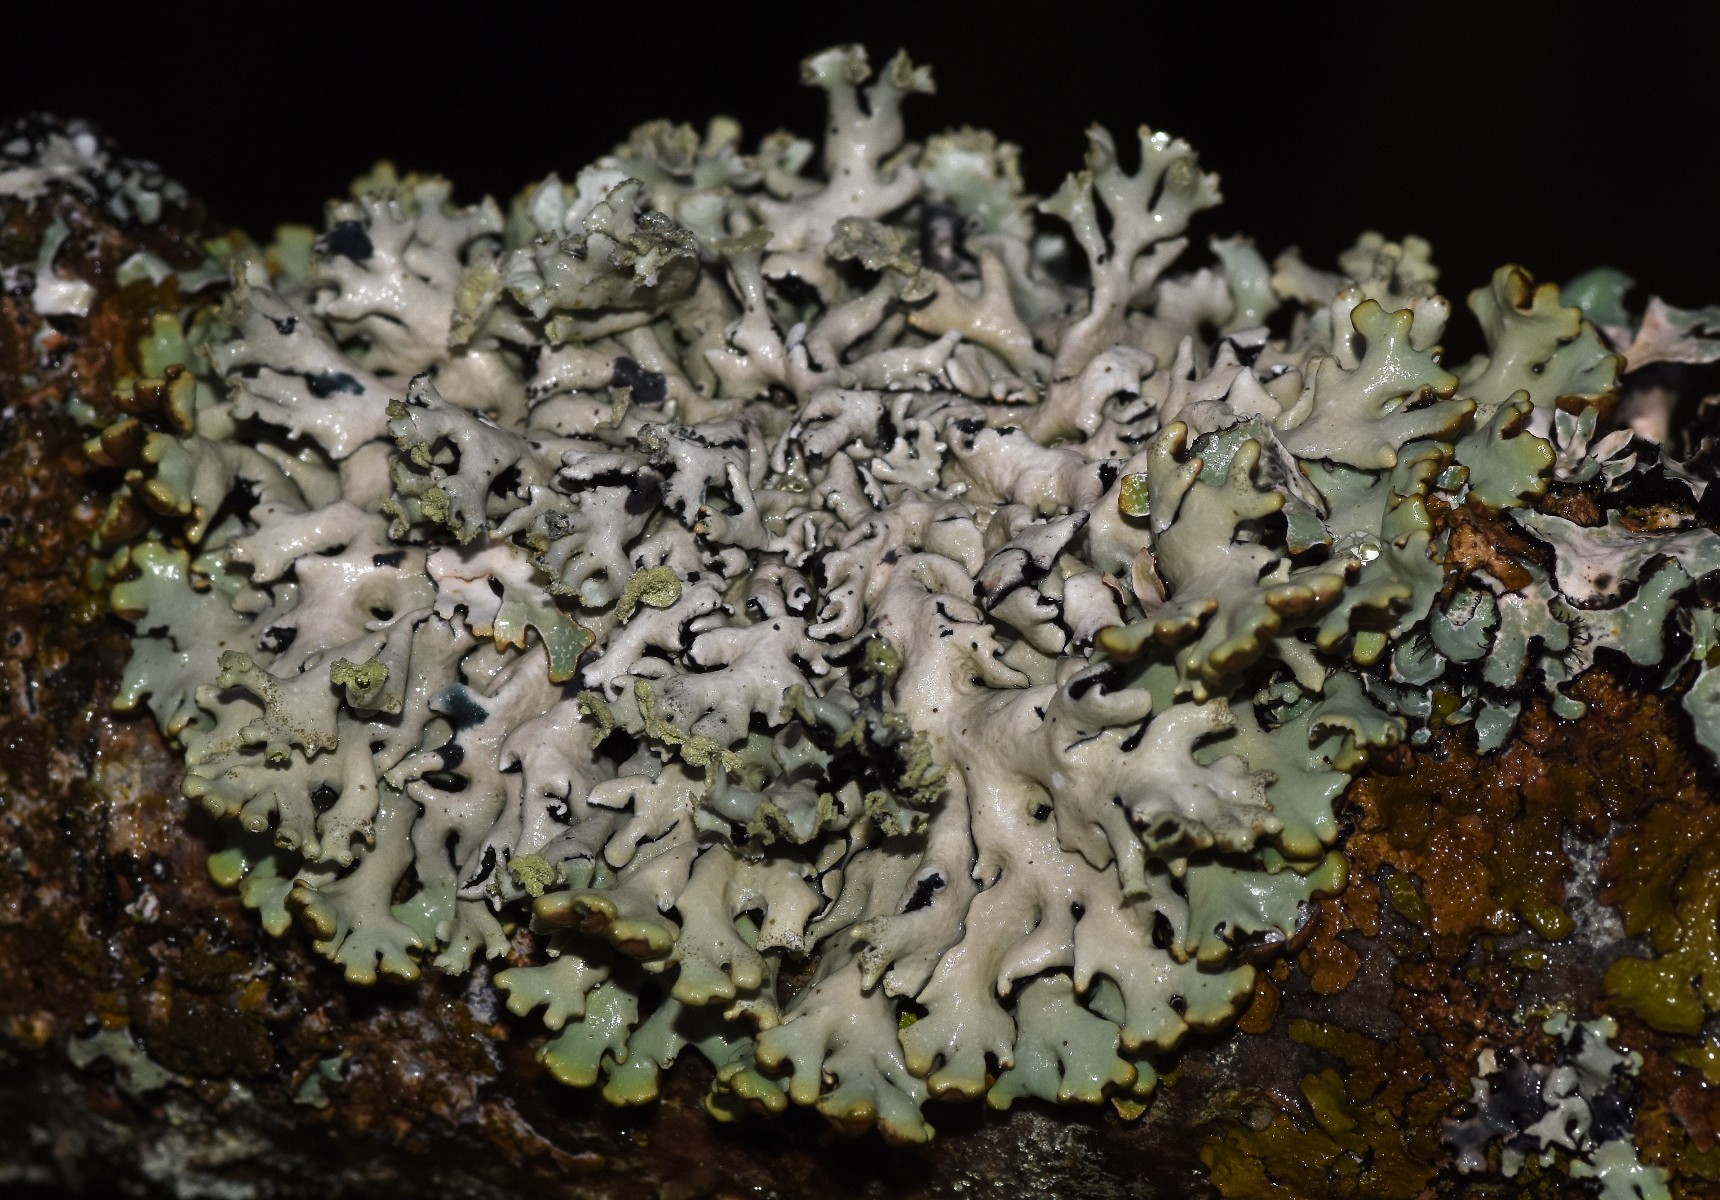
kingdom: Fungi
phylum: Ascomycota
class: Lecanoromycetes
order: Lecanorales
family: Parmeliaceae
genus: Hypogymnia
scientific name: Hypogymnia physodes
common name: almindelig kvistlav
